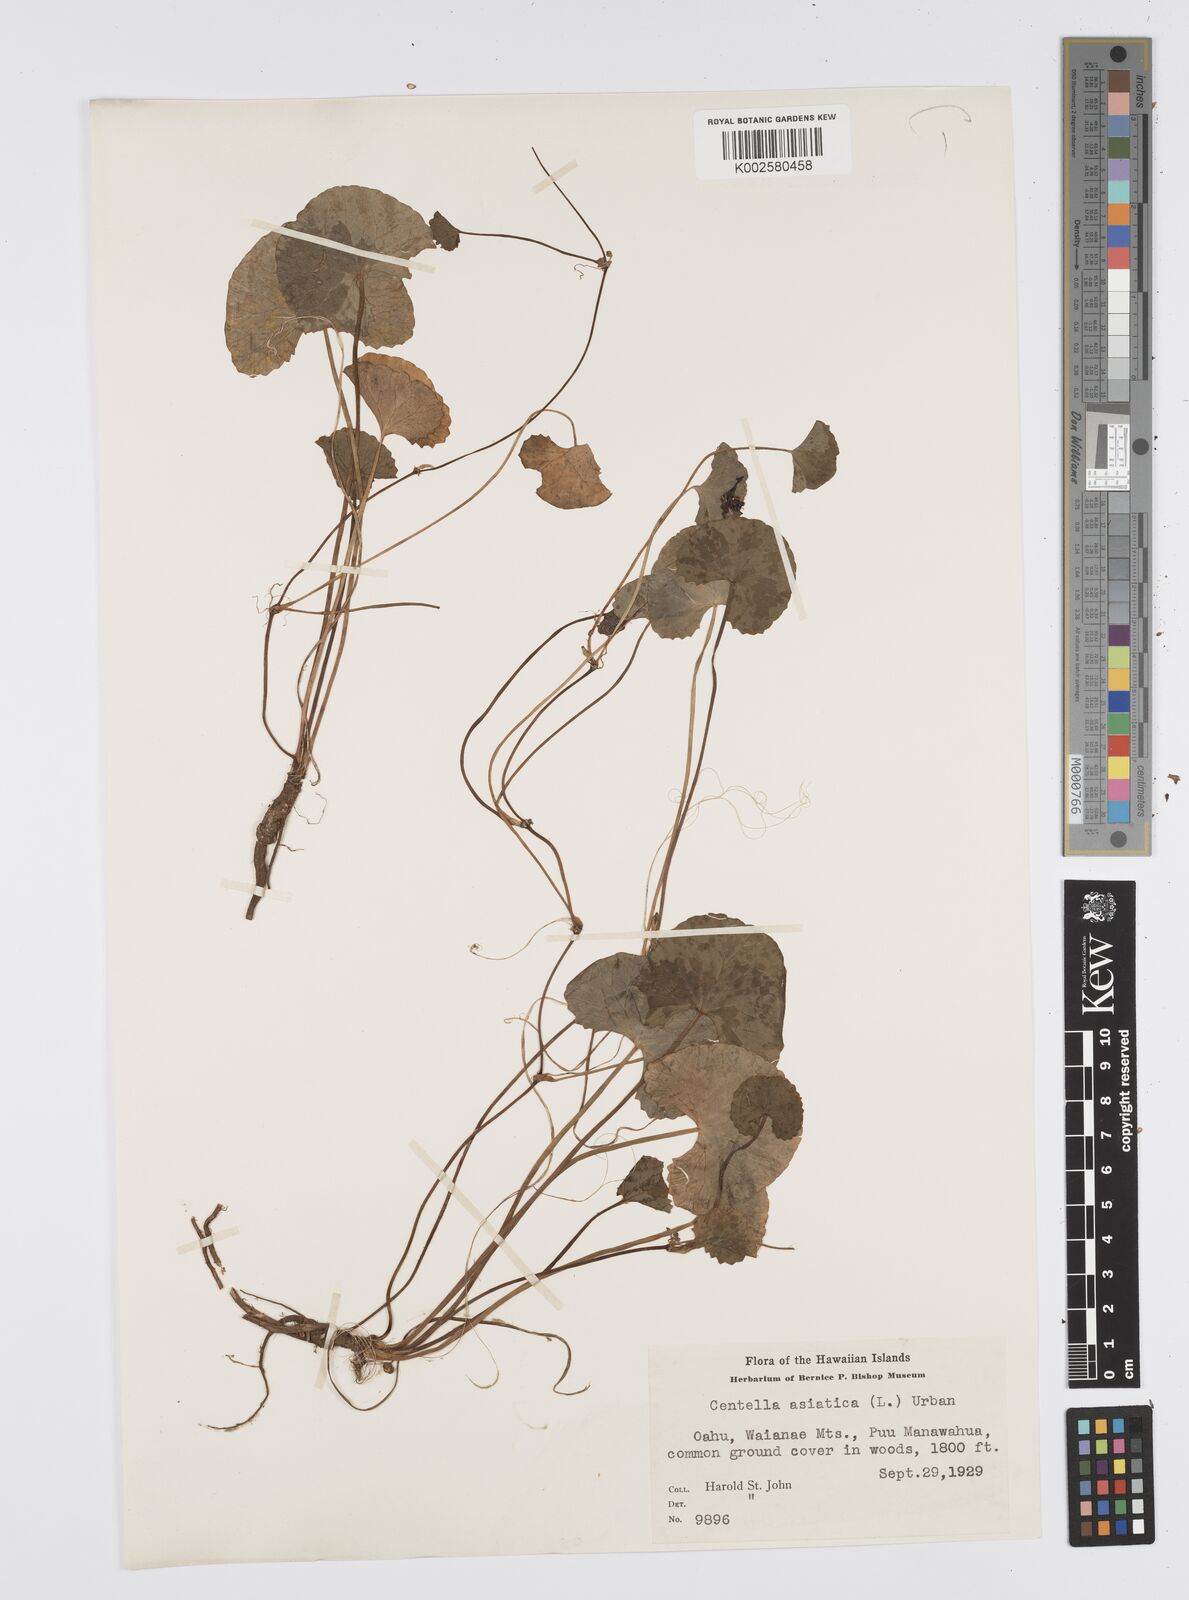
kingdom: Plantae
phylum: Tracheophyta
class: Magnoliopsida
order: Apiales
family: Apiaceae
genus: Centella
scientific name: Centella asiatica
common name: Spadeleaf
